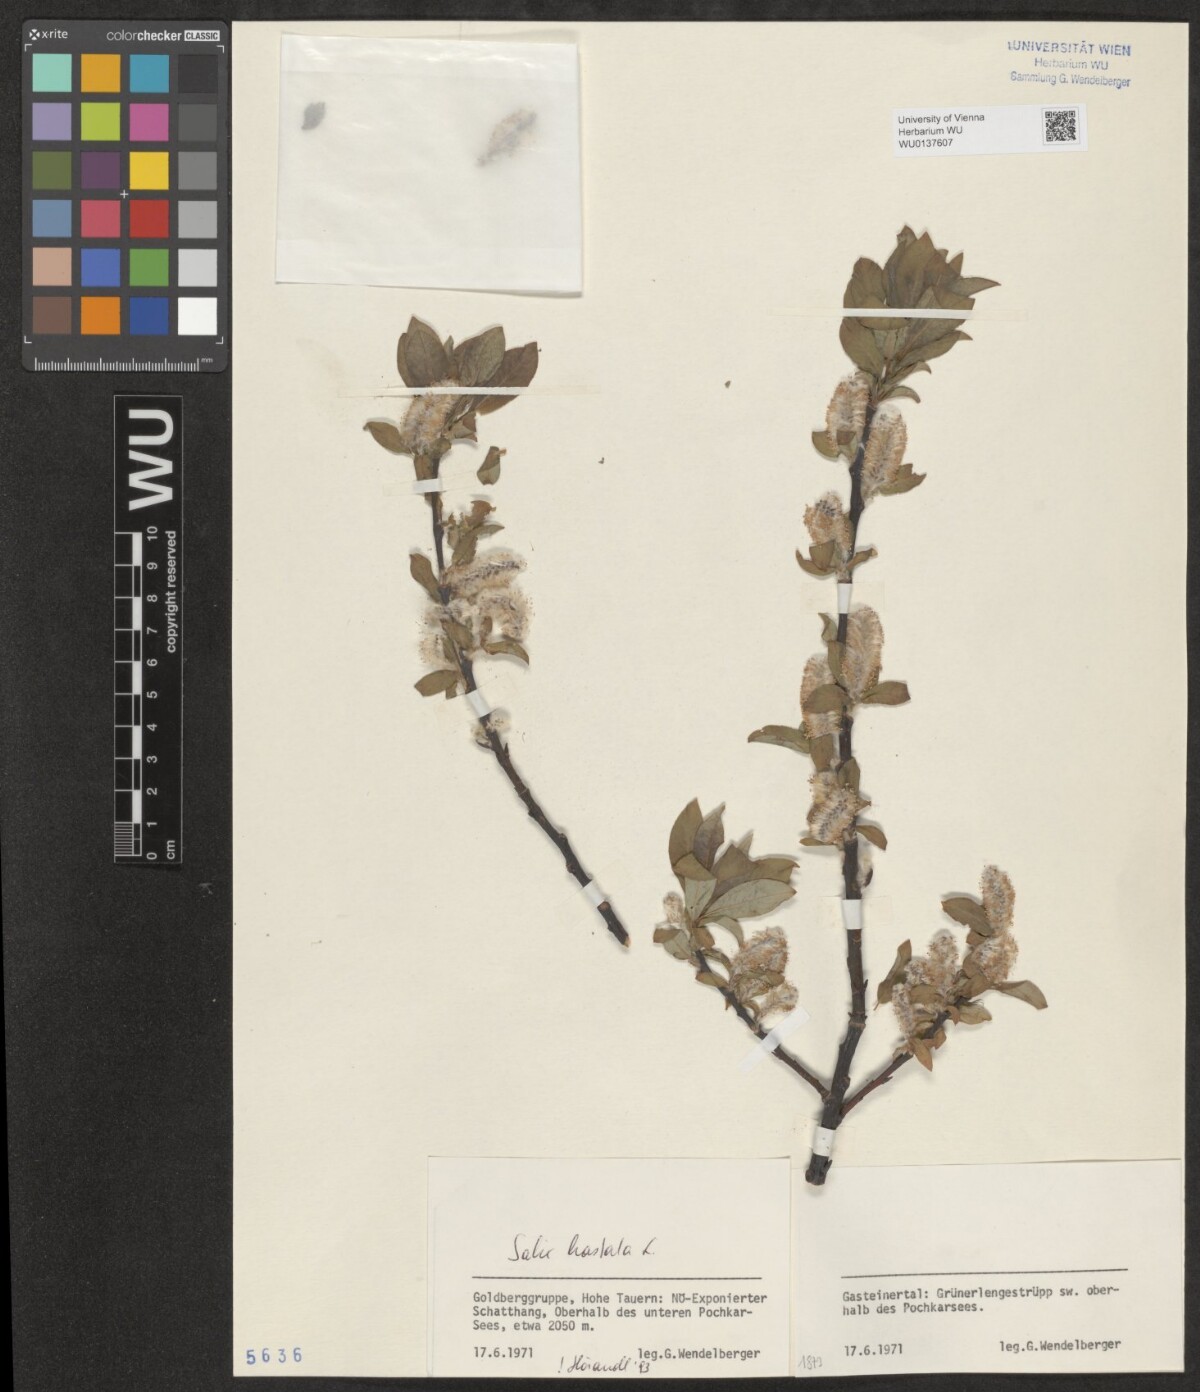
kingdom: Plantae
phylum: Tracheophyta
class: Magnoliopsida
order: Malpighiales
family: Salicaceae
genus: Salix
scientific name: Salix hastata
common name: Halberd willow
